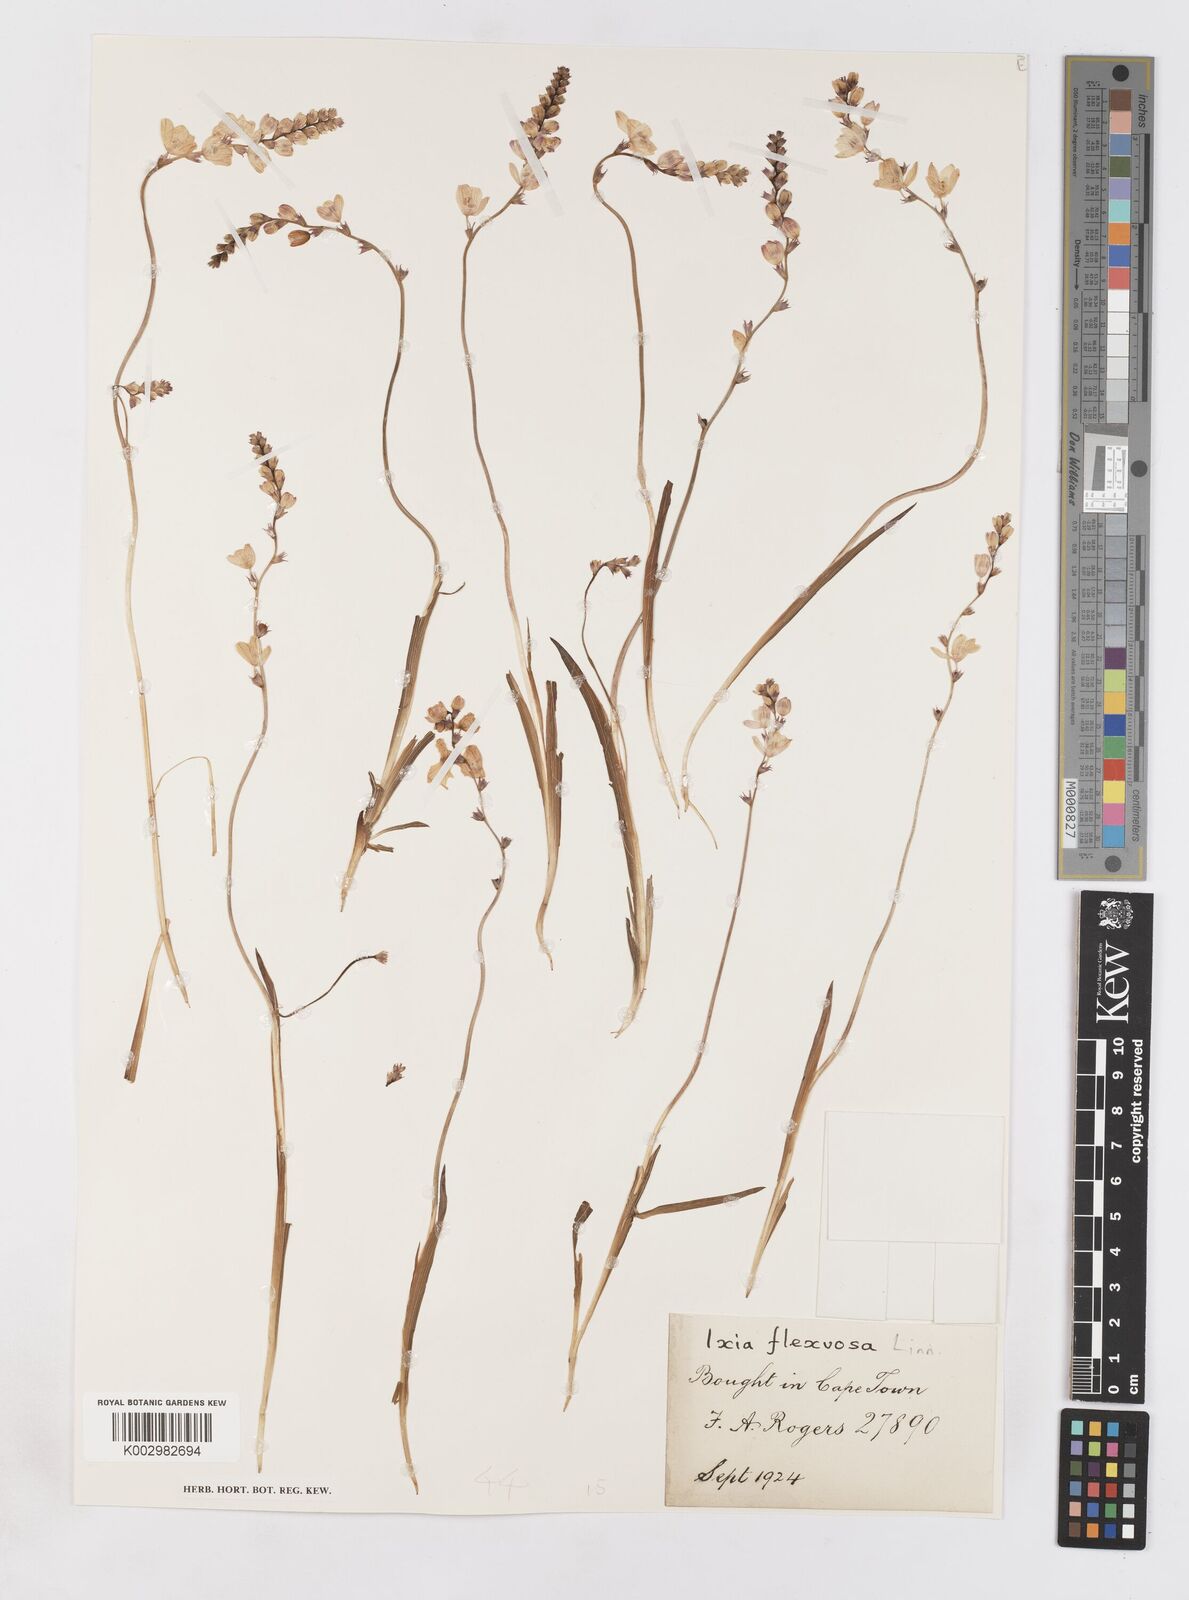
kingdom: Plantae
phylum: Tracheophyta
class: Liliopsida
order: Asparagales
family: Iridaceae
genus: Ixia
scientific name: Ixia flexuosa
